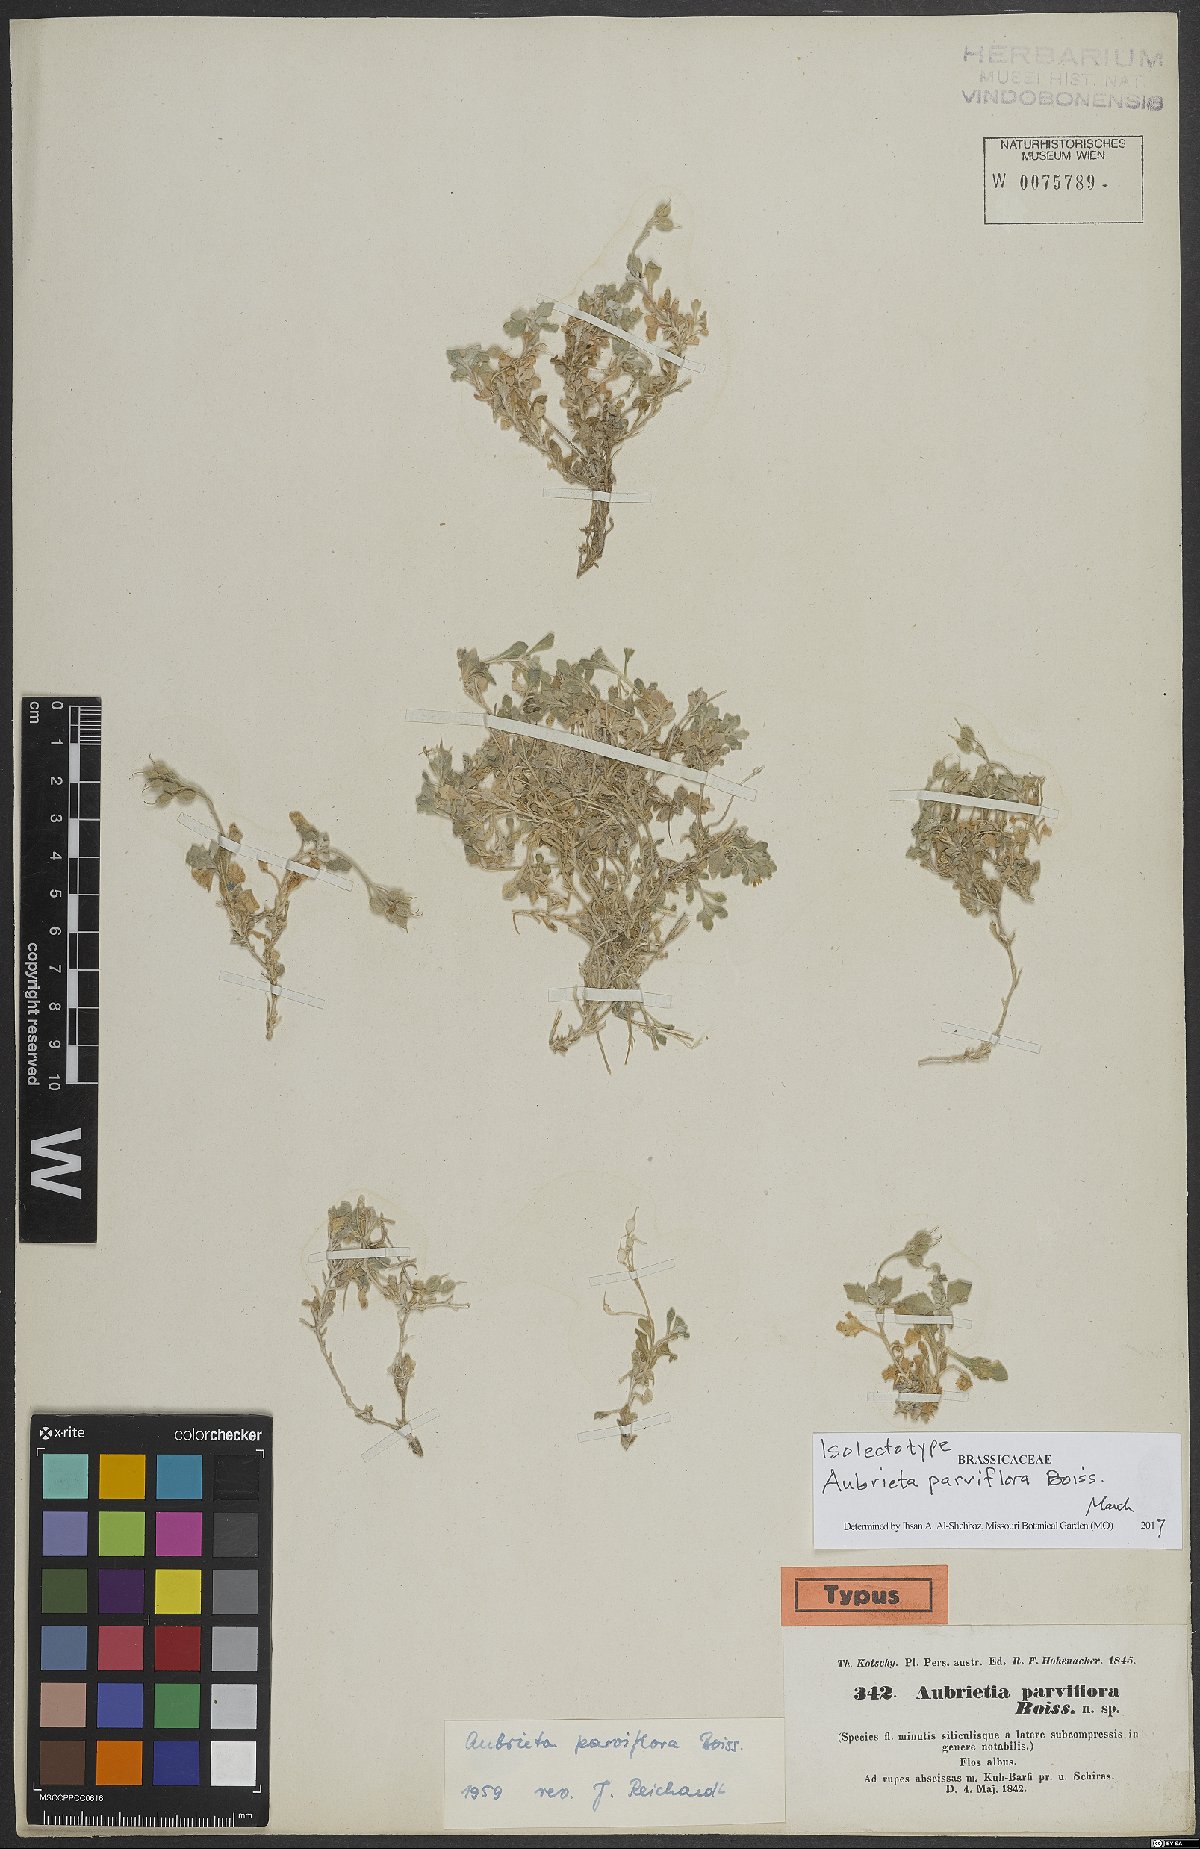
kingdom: Plantae
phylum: Tracheophyta
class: Magnoliopsida
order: Brassicales
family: Brassicaceae
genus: Aubrieta
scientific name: Aubrieta parviflora
